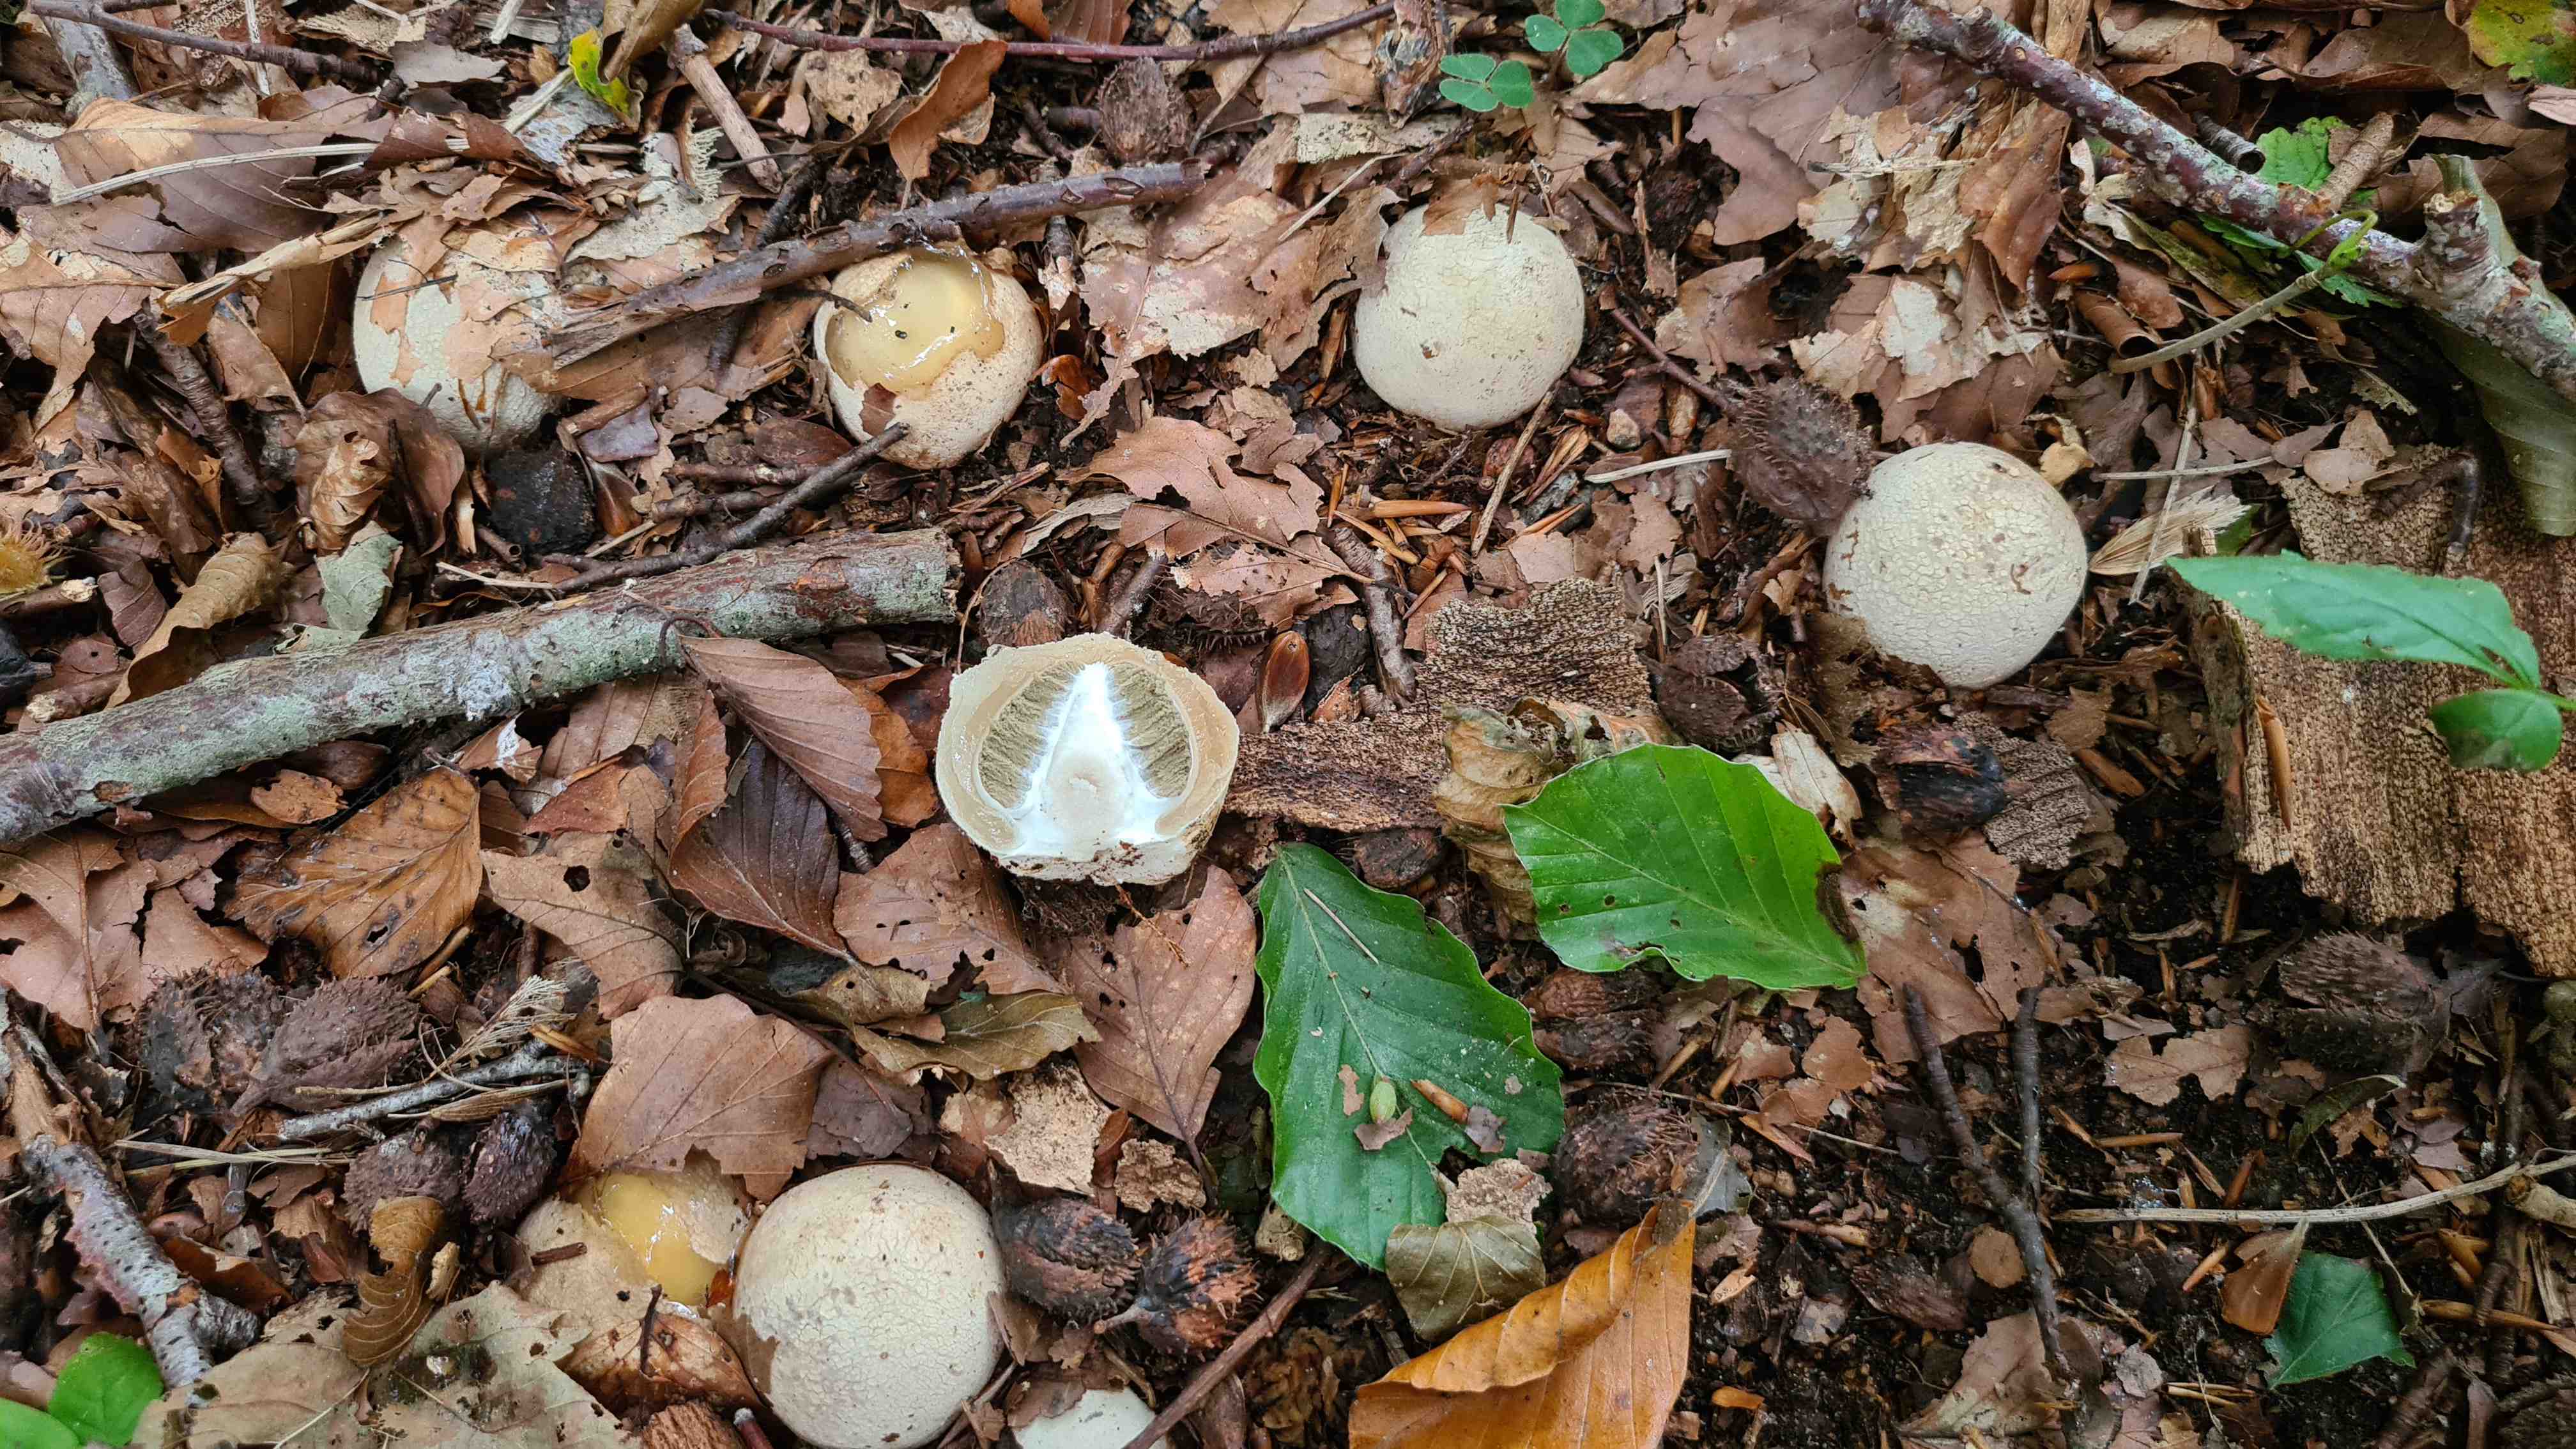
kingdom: Fungi
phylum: Basidiomycota
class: Agaricomycetes
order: Phallales
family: Phallaceae
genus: Phallus
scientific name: Phallus impudicus
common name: almindelig stinksvamp
